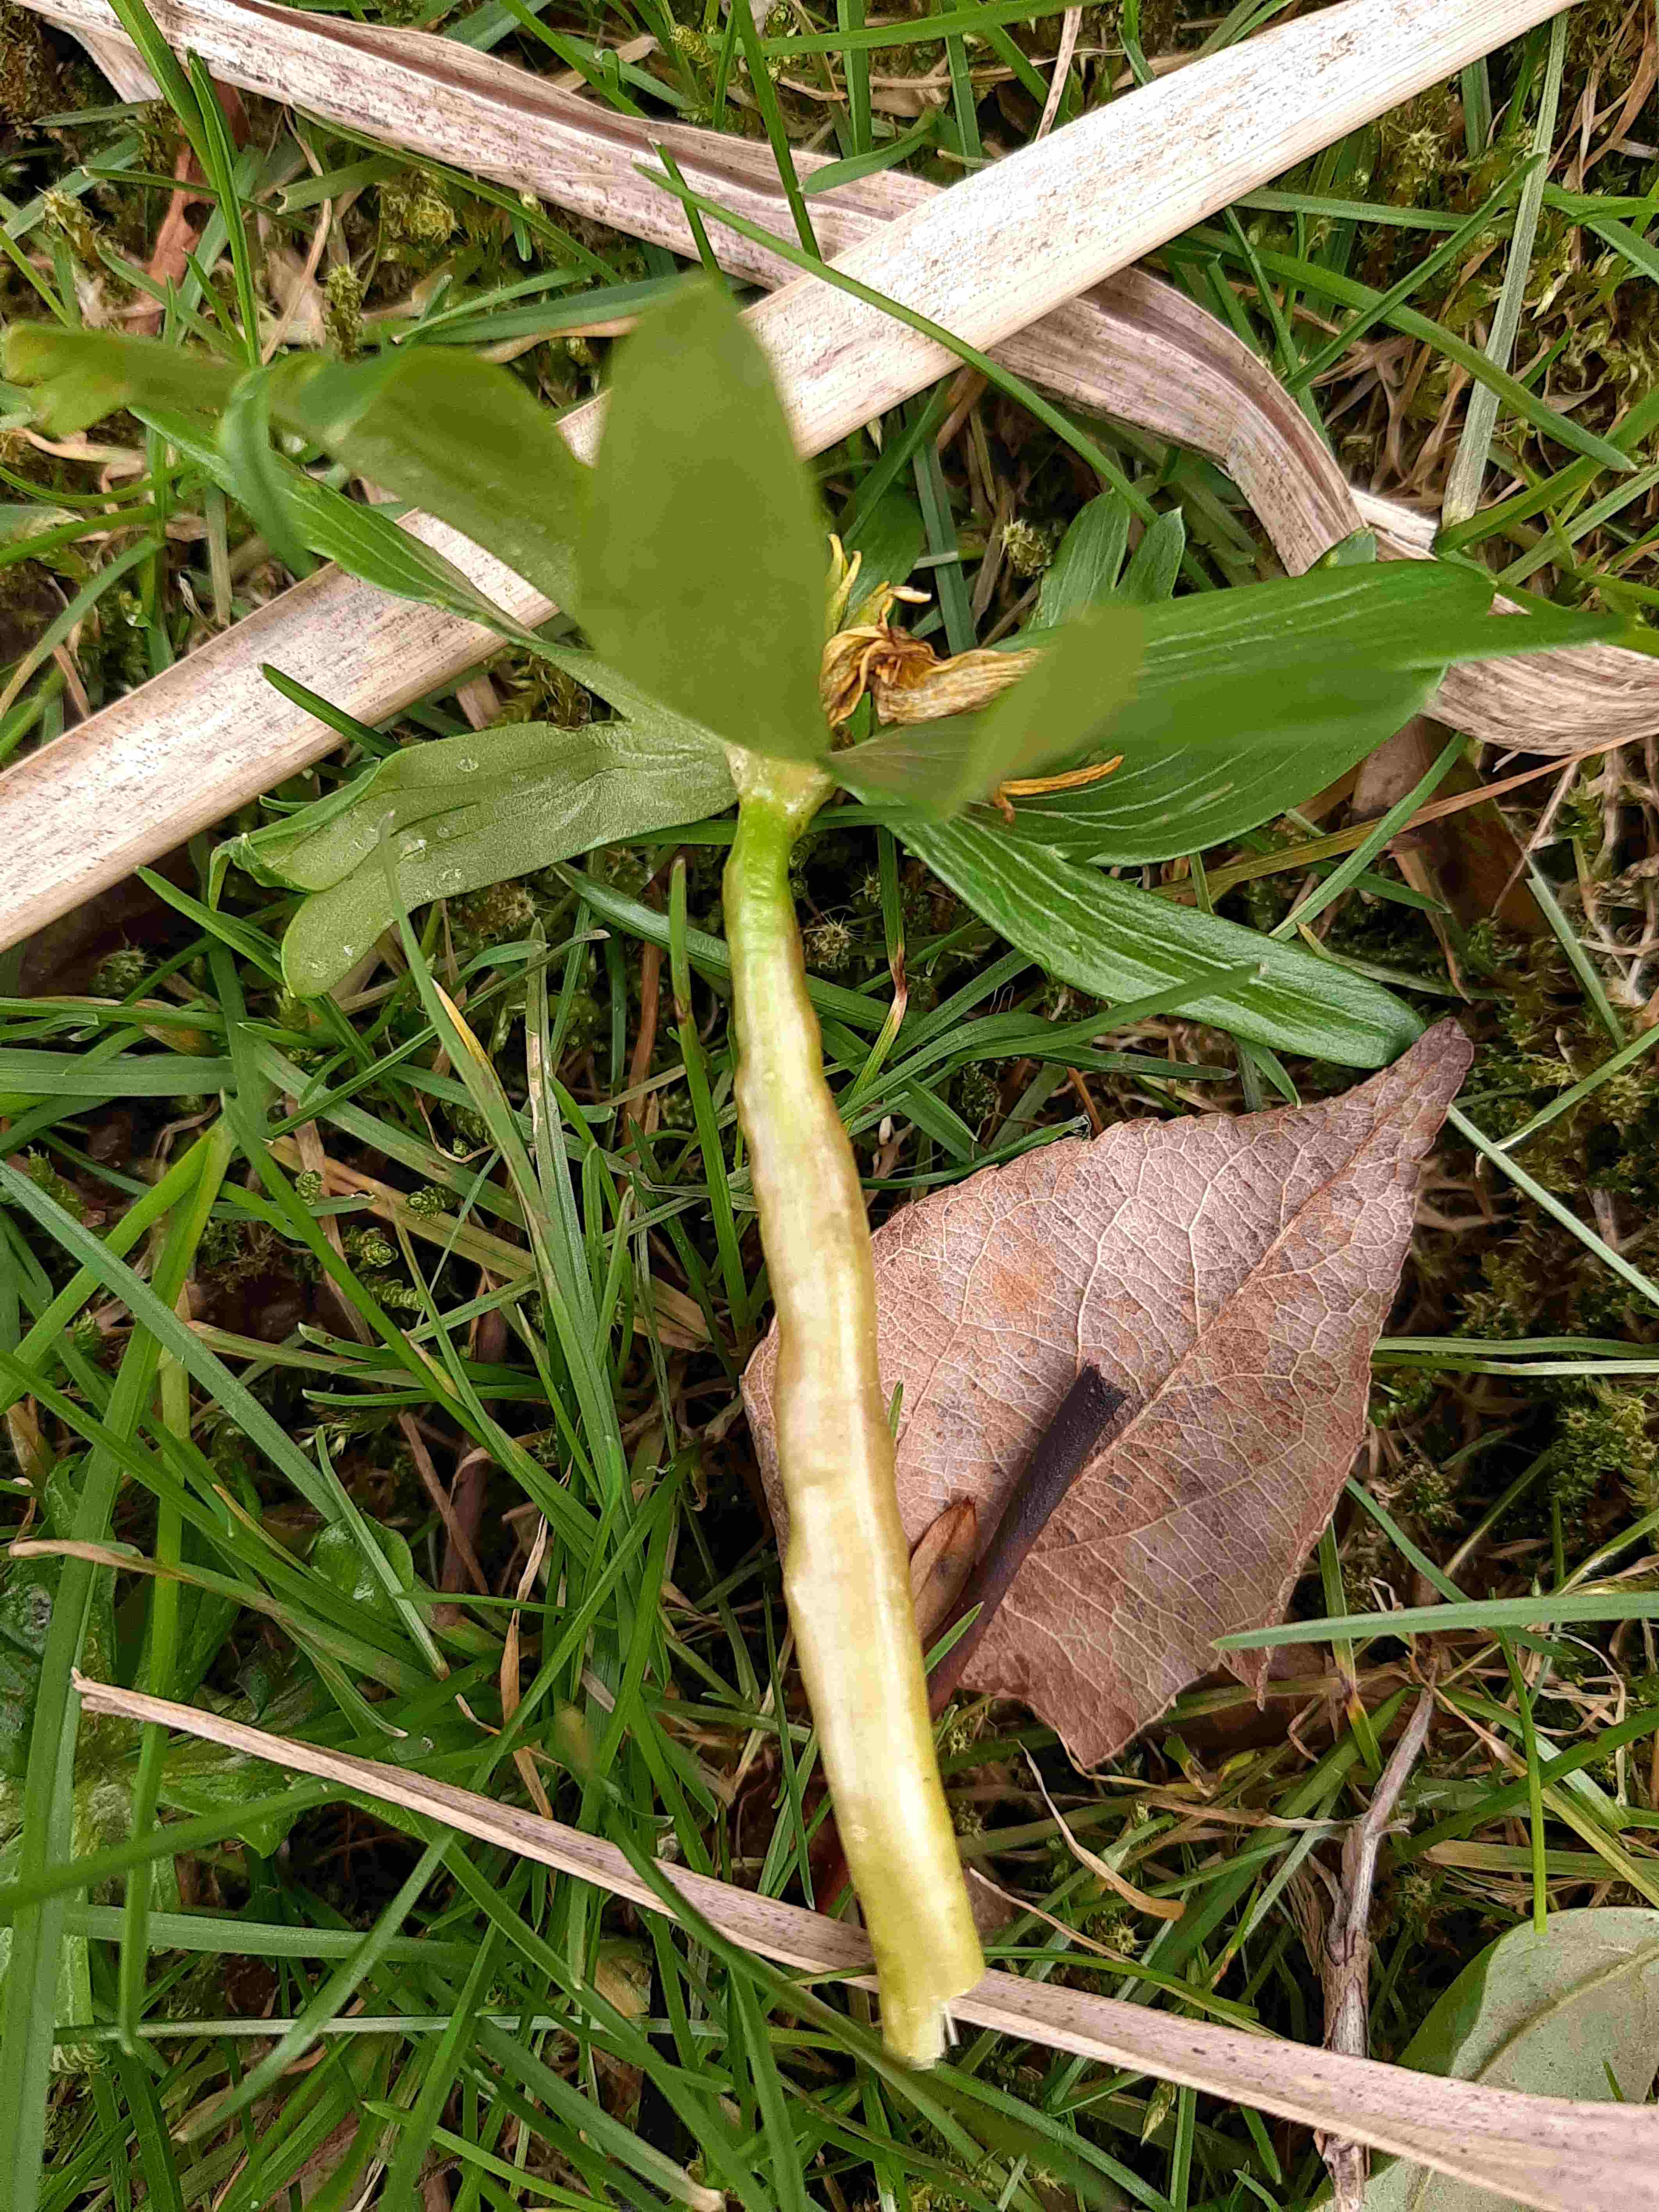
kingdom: Fungi
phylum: Basidiomycota
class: Ustilaginomycetes
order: Urocystidales
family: Urocystidaceae
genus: Urocystis
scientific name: Urocystis eranthidis
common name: erantis-brand
